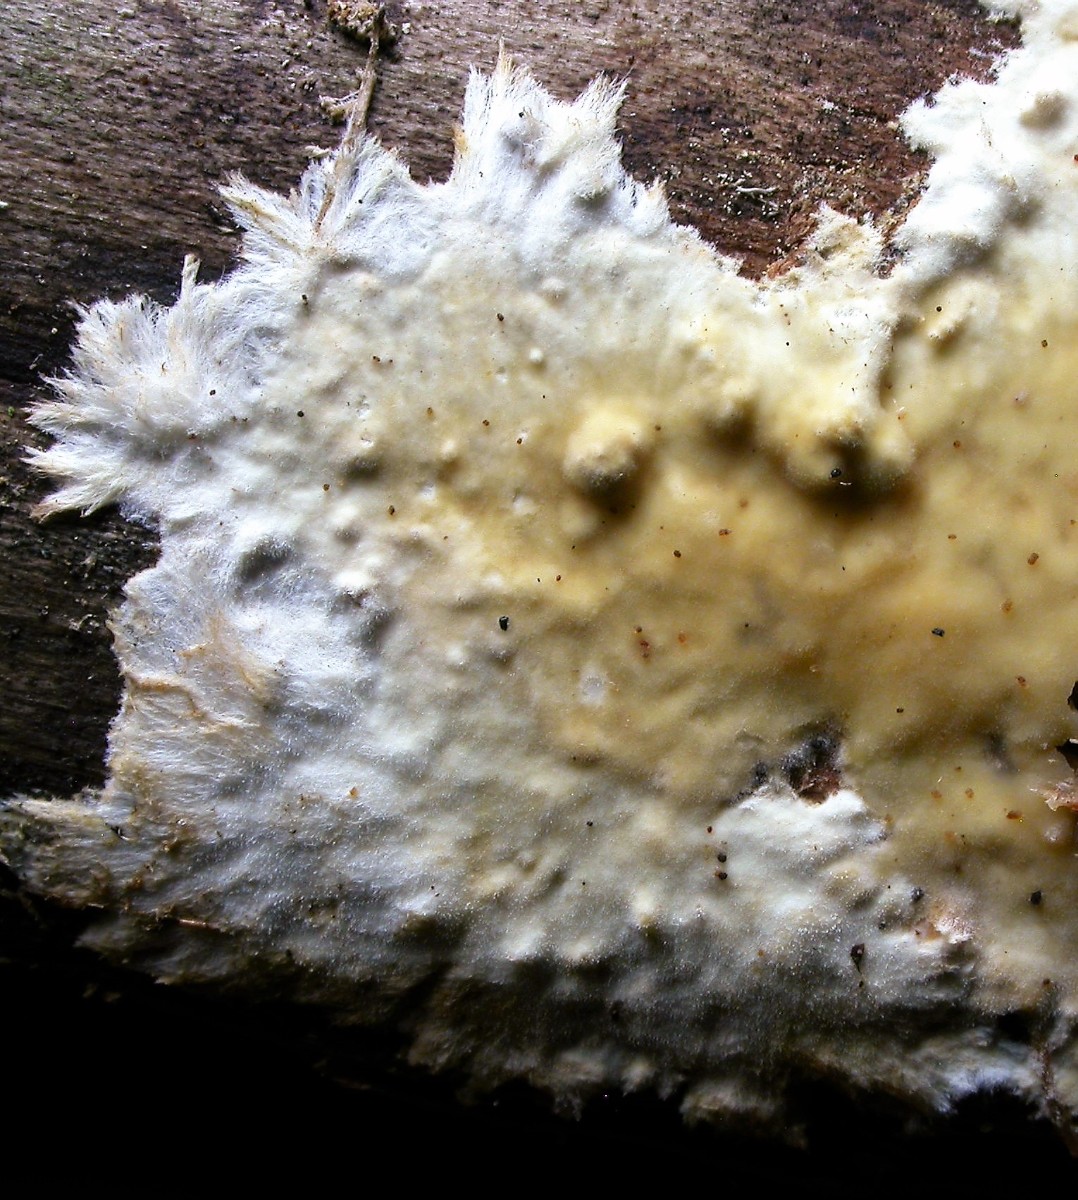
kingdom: Fungi
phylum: Basidiomycota
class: Agaricomycetes
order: Polyporales
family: Phanerochaetaceae
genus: Phanerochaete
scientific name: Phanerochaete sordida
